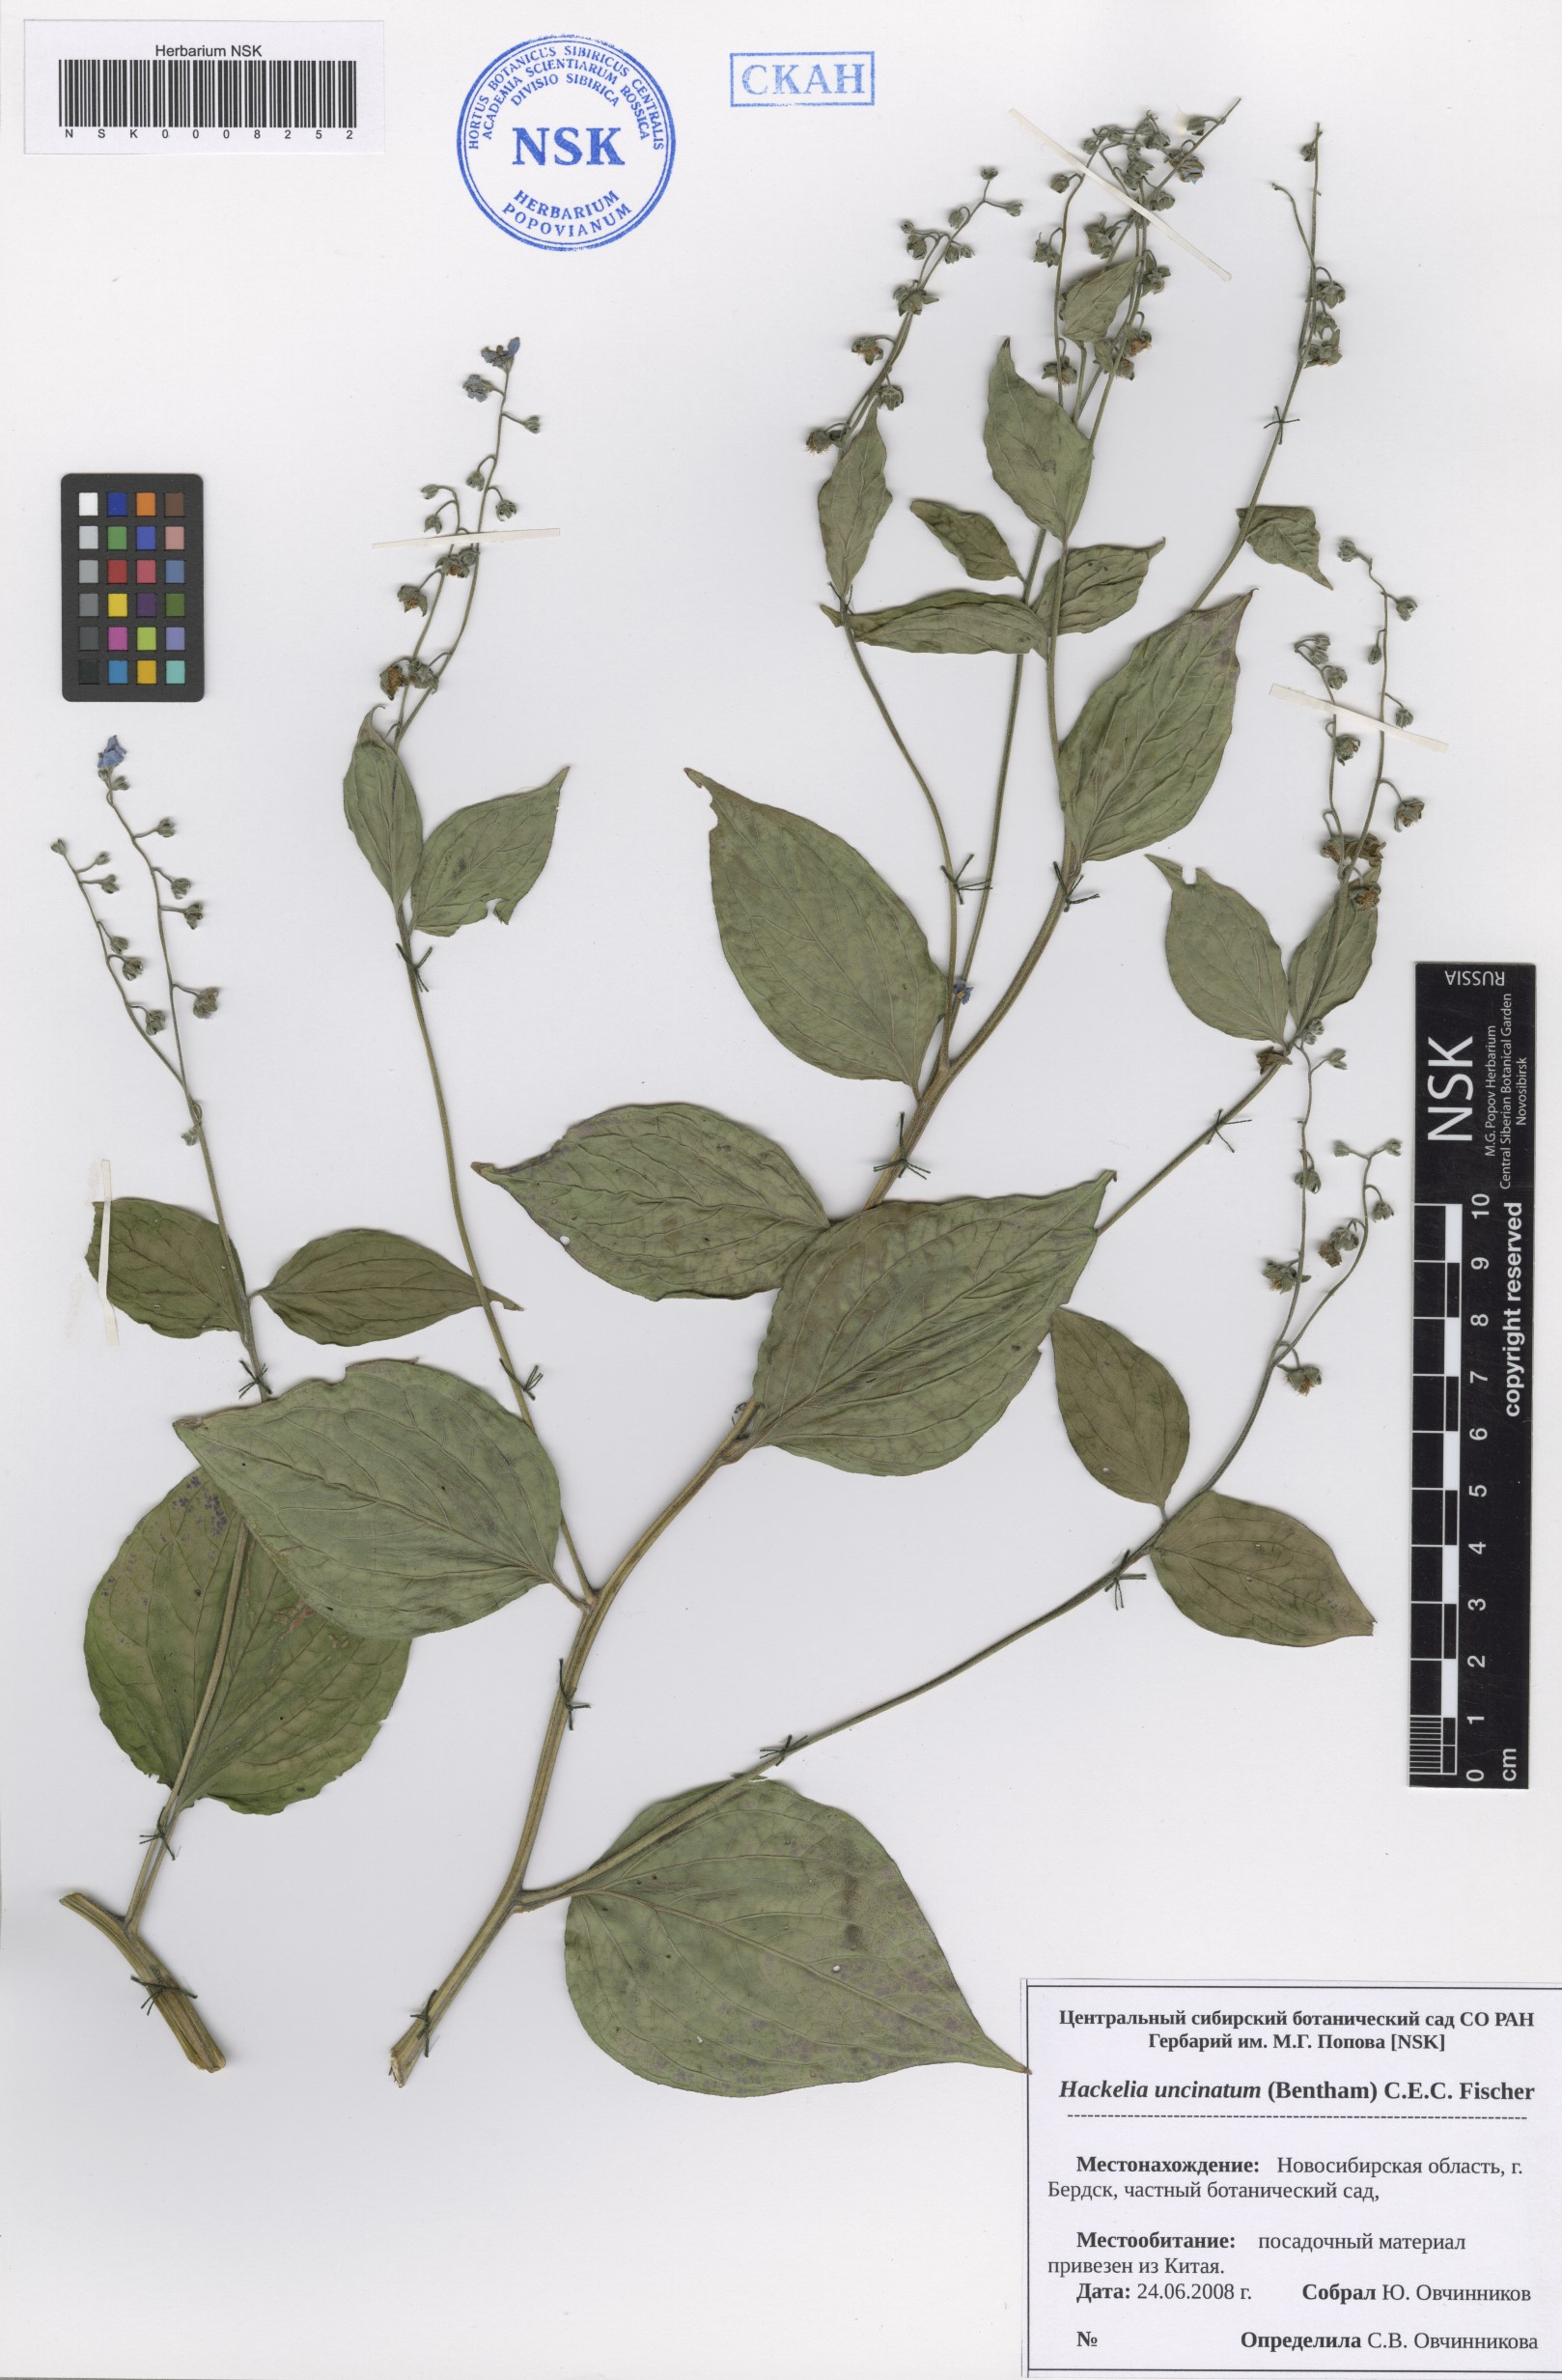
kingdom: Plantae
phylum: Tracheophyta
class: Magnoliopsida
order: Boraginales
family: Boraginaceae
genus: Hackelia
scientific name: Hackelia uncinata
